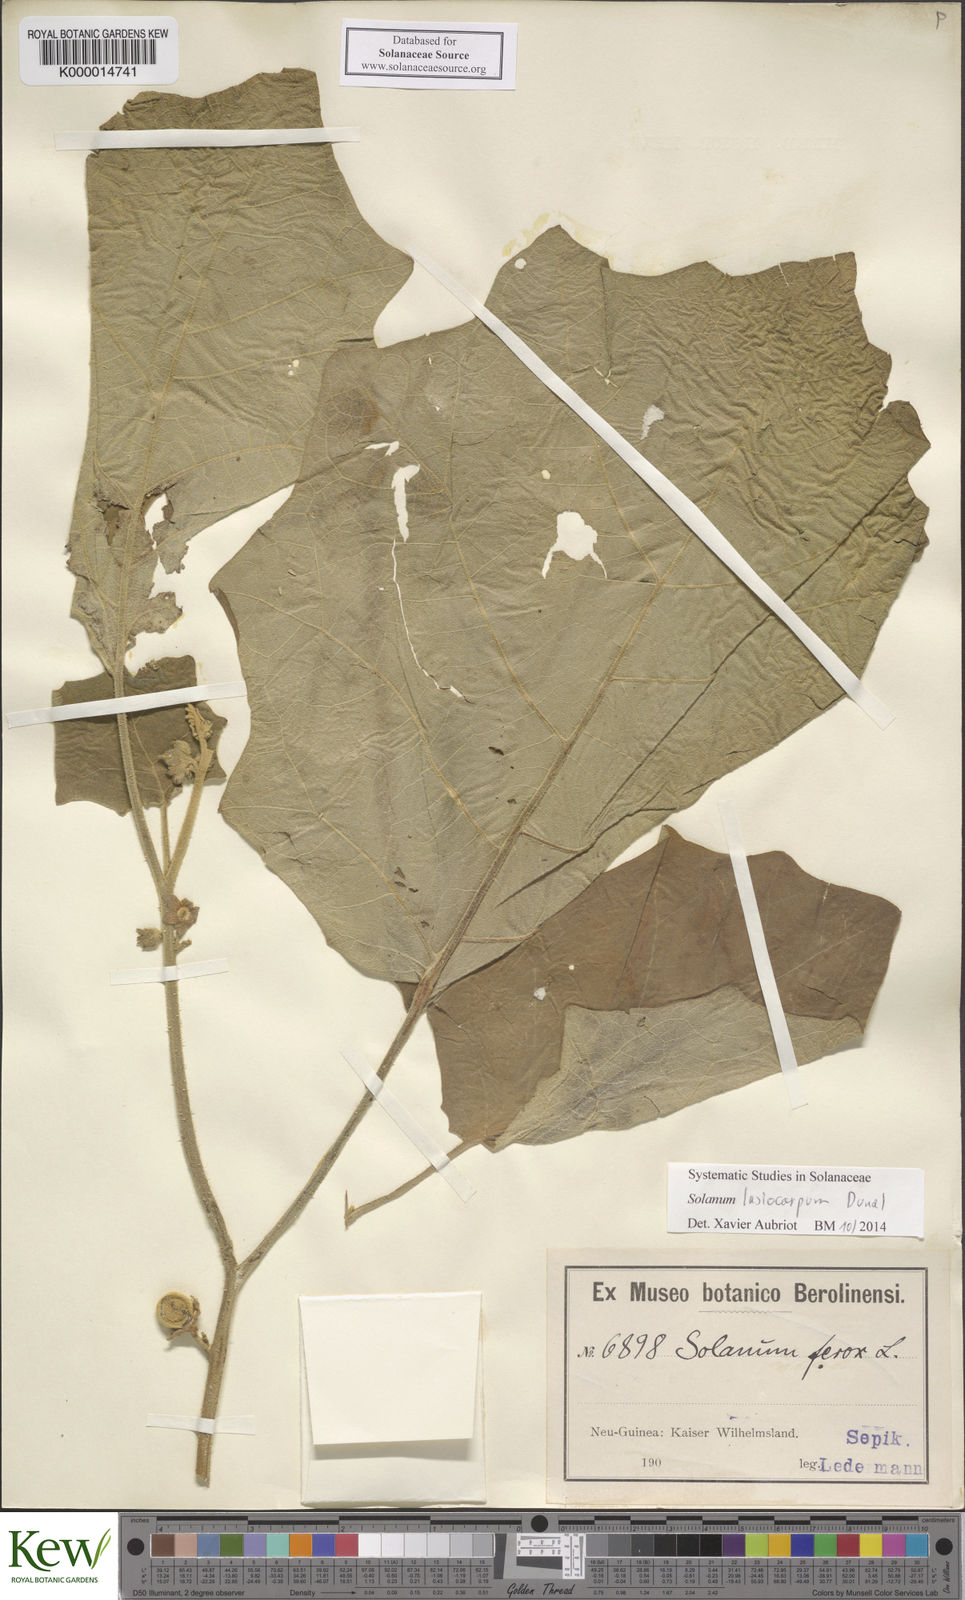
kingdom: Plantae
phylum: Tracheophyta
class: Magnoliopsida
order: Solanales
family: Solanaceae
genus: Solanum
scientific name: Solanum lasiocarpum
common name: Indian nightshade
